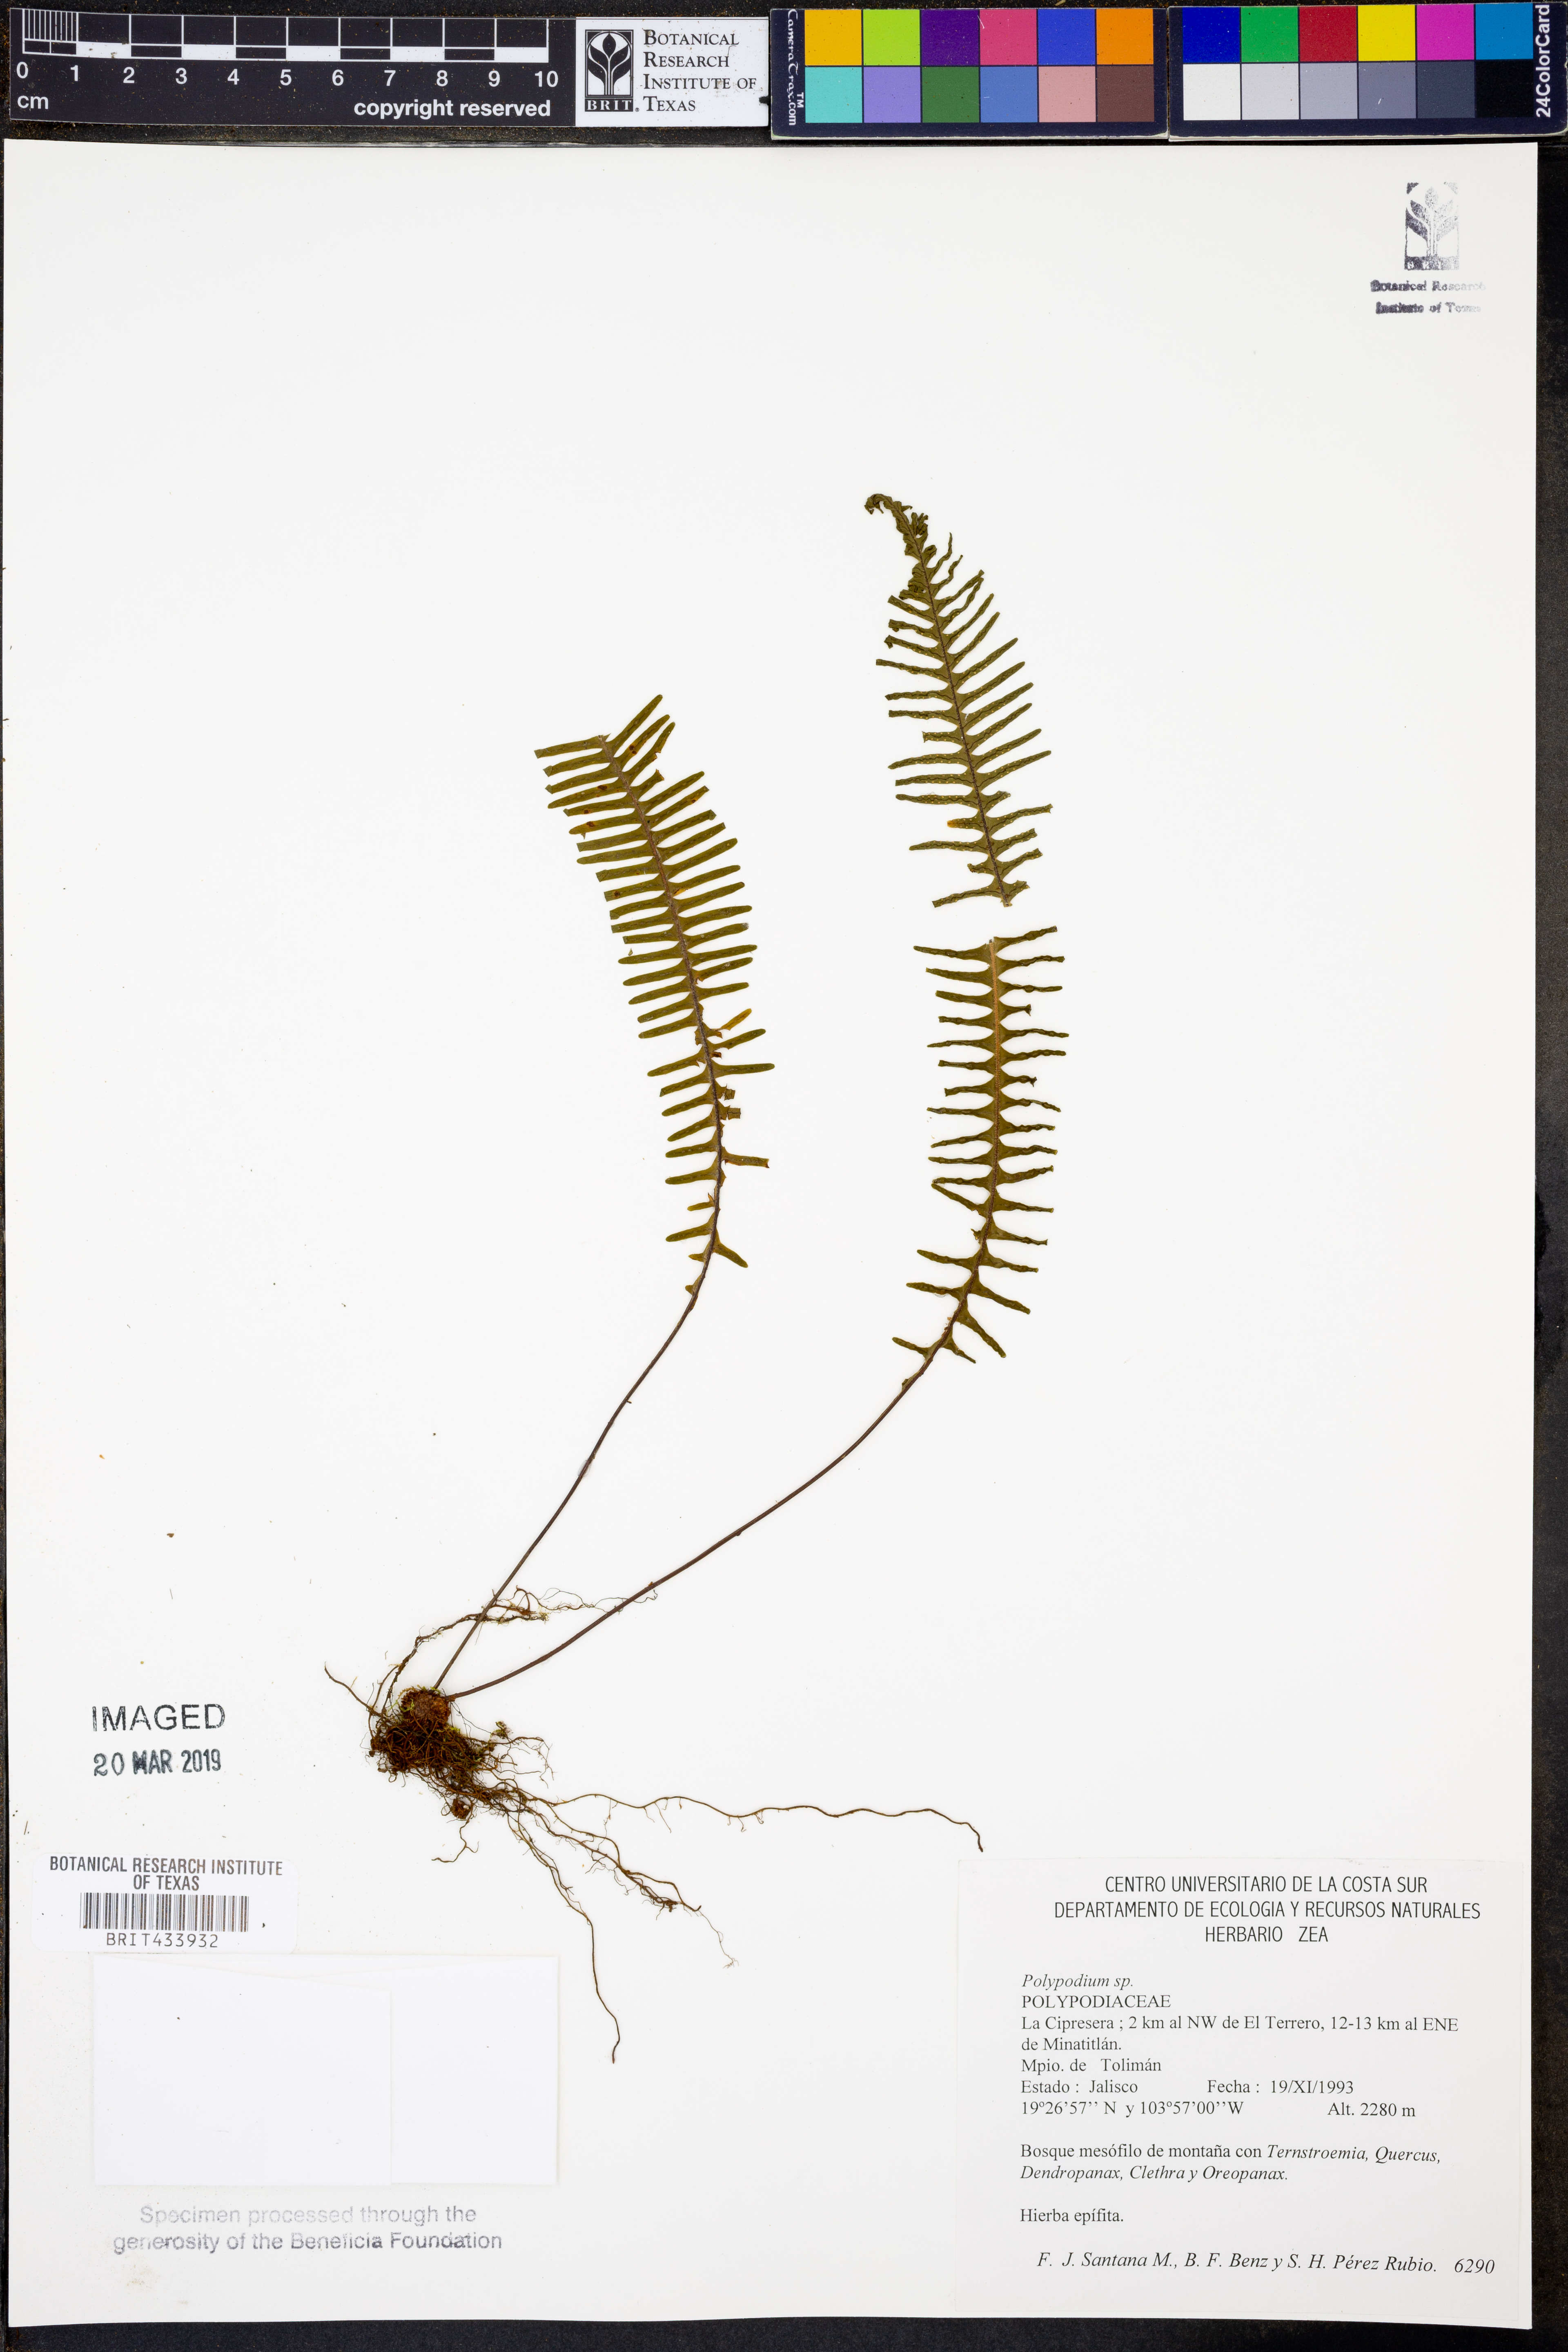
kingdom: Plantae
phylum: Tracheophyta
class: Polypodiopsida
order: Polypodiales
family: Polypodiaceae
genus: Polypodium
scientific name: Polypodium
